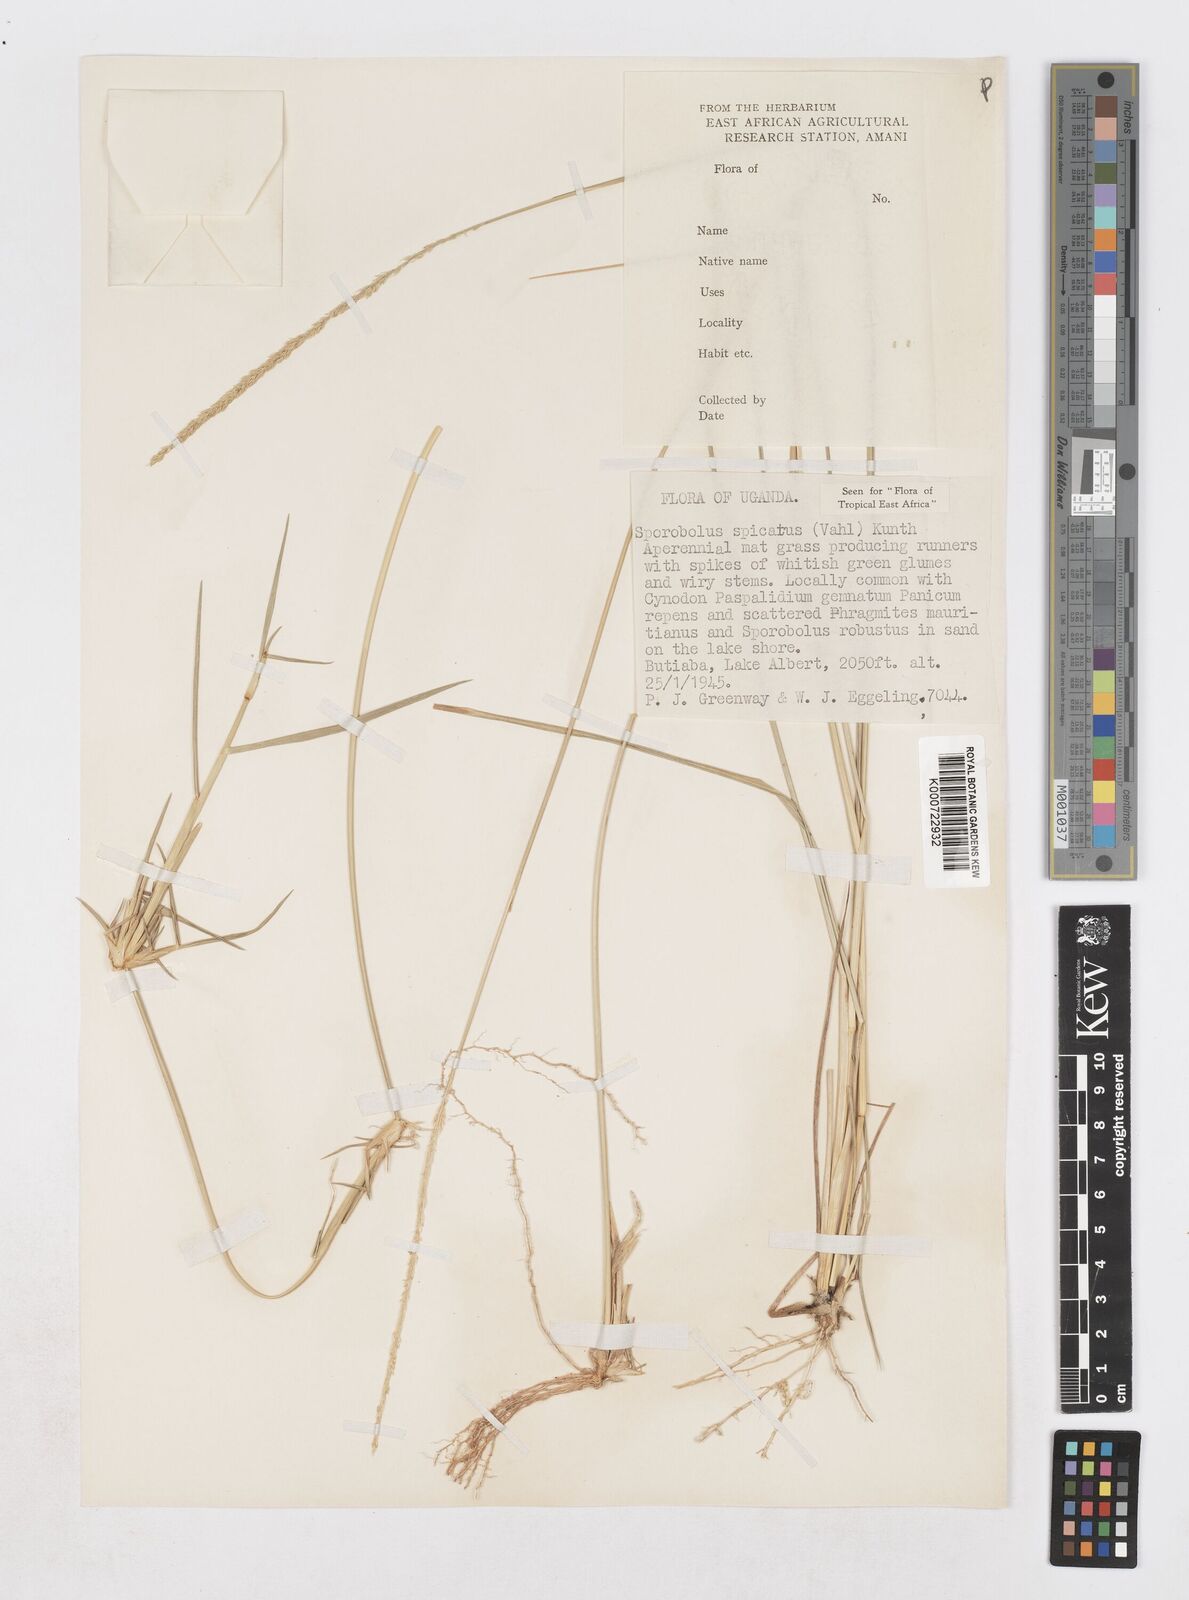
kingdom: Plantae
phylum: Tracheophyta
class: Liliopsida
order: Poales
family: Poaceae
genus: Sporobolus
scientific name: Sporobolus spicatus
